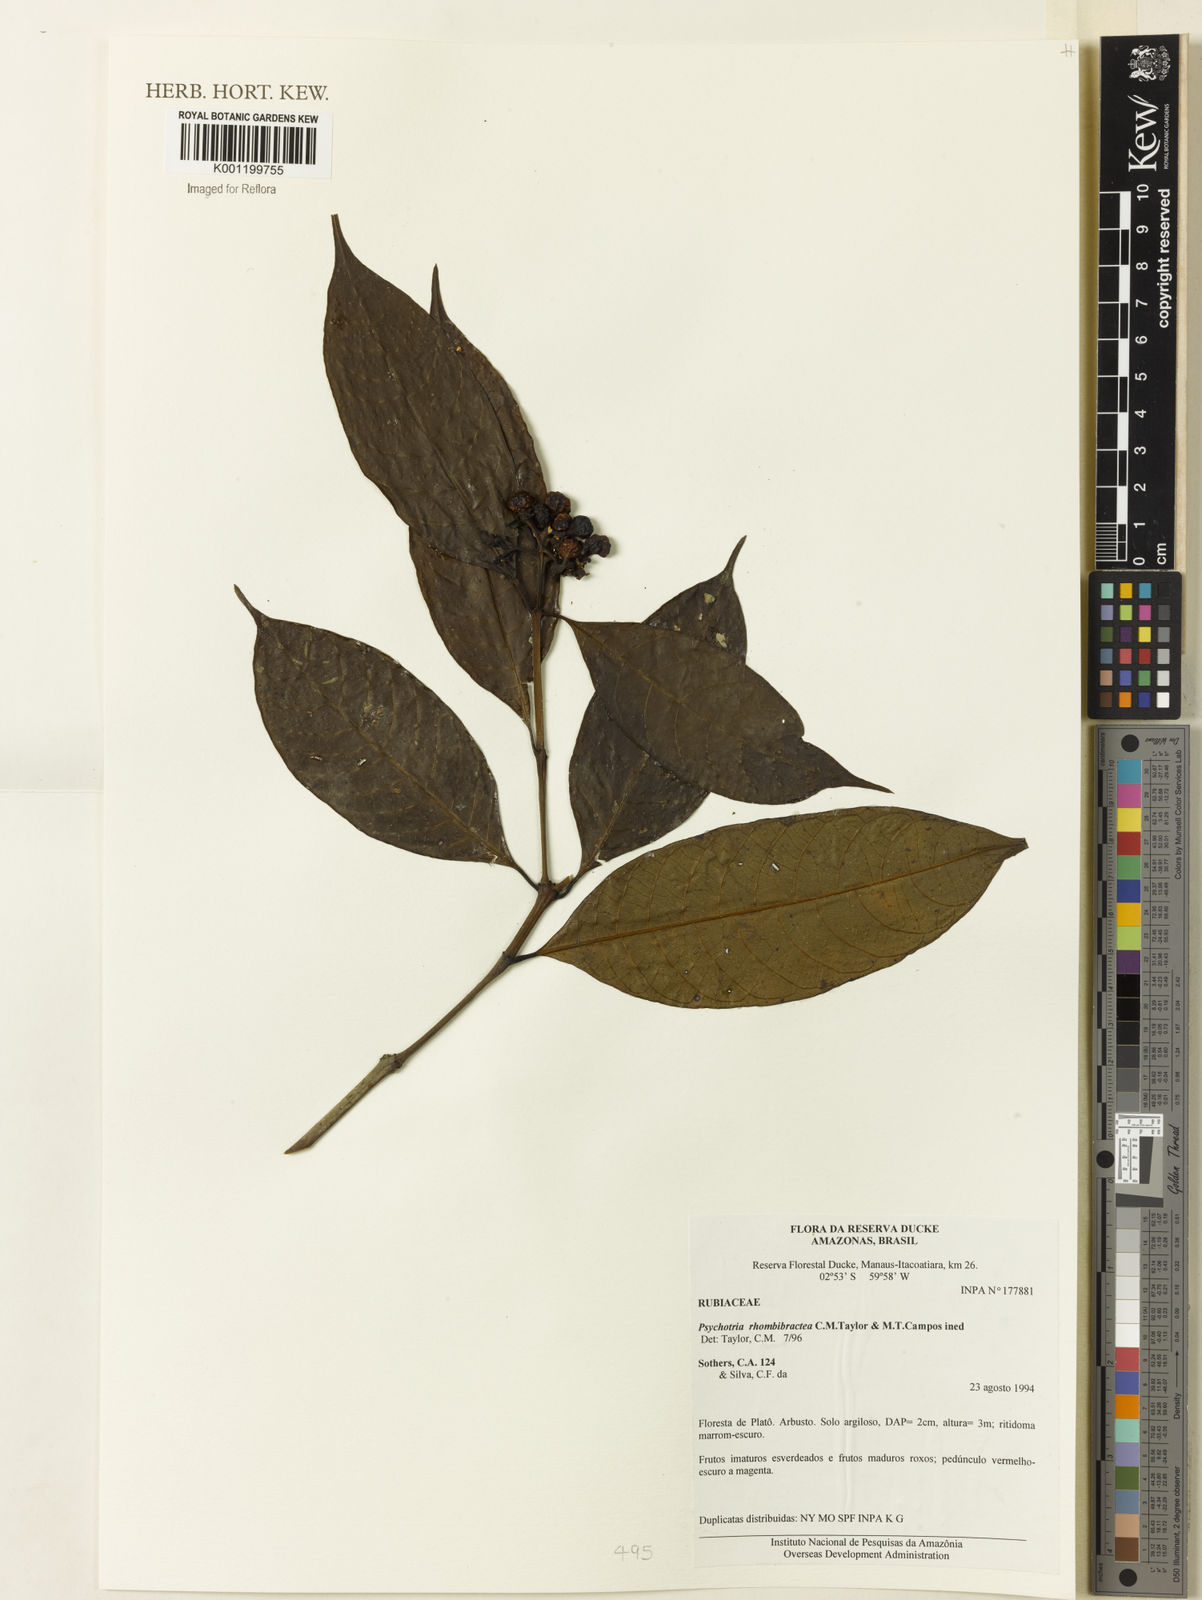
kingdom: Plantae
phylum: Tracheophyta
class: Magnoliopsida
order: Gentianales
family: Rubiaceae
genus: Psychotria
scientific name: Psychotria
